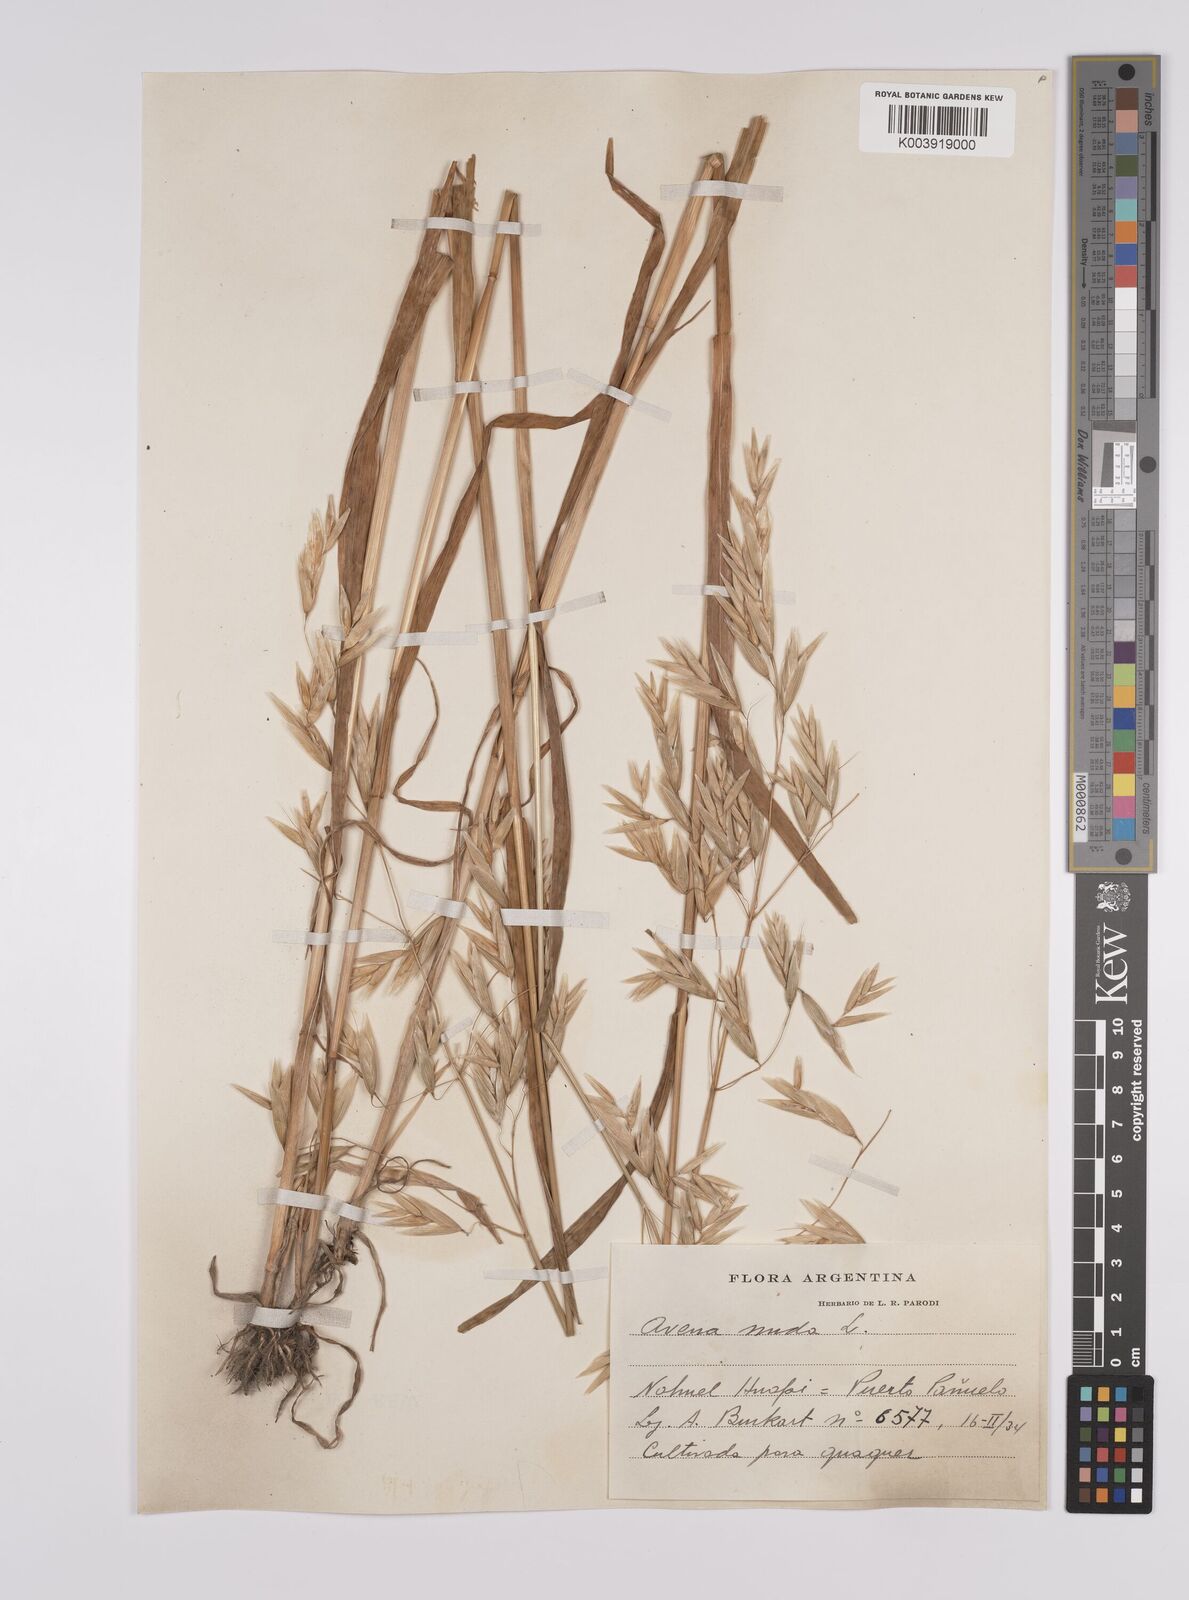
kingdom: Plantae
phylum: Tracheophyta
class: Liliopsida
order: Poales
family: Poaceae
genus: Avena
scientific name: Avena nuda
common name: Naked oat
